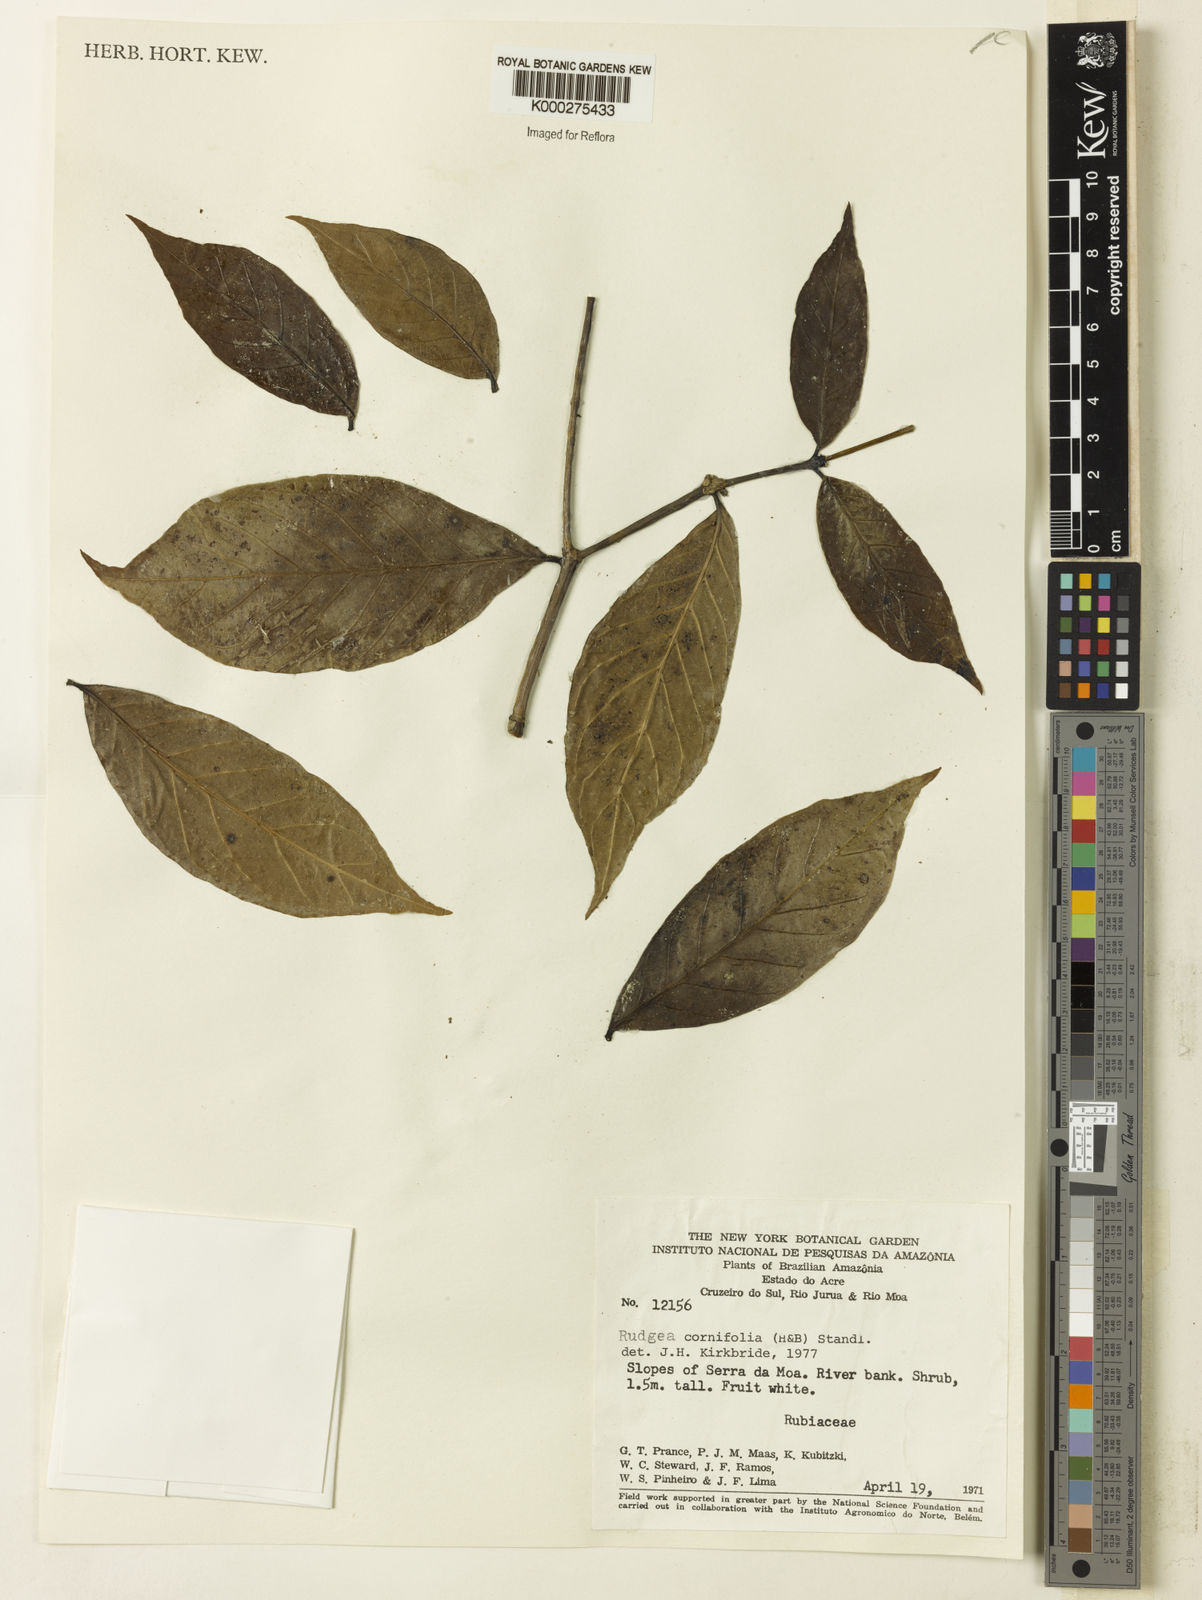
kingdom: Plantae
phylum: Tracheophyta
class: Magnoliopsida
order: Gentianales
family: Rubiaceae
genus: Rudgea
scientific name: Rudgea cornifolia
